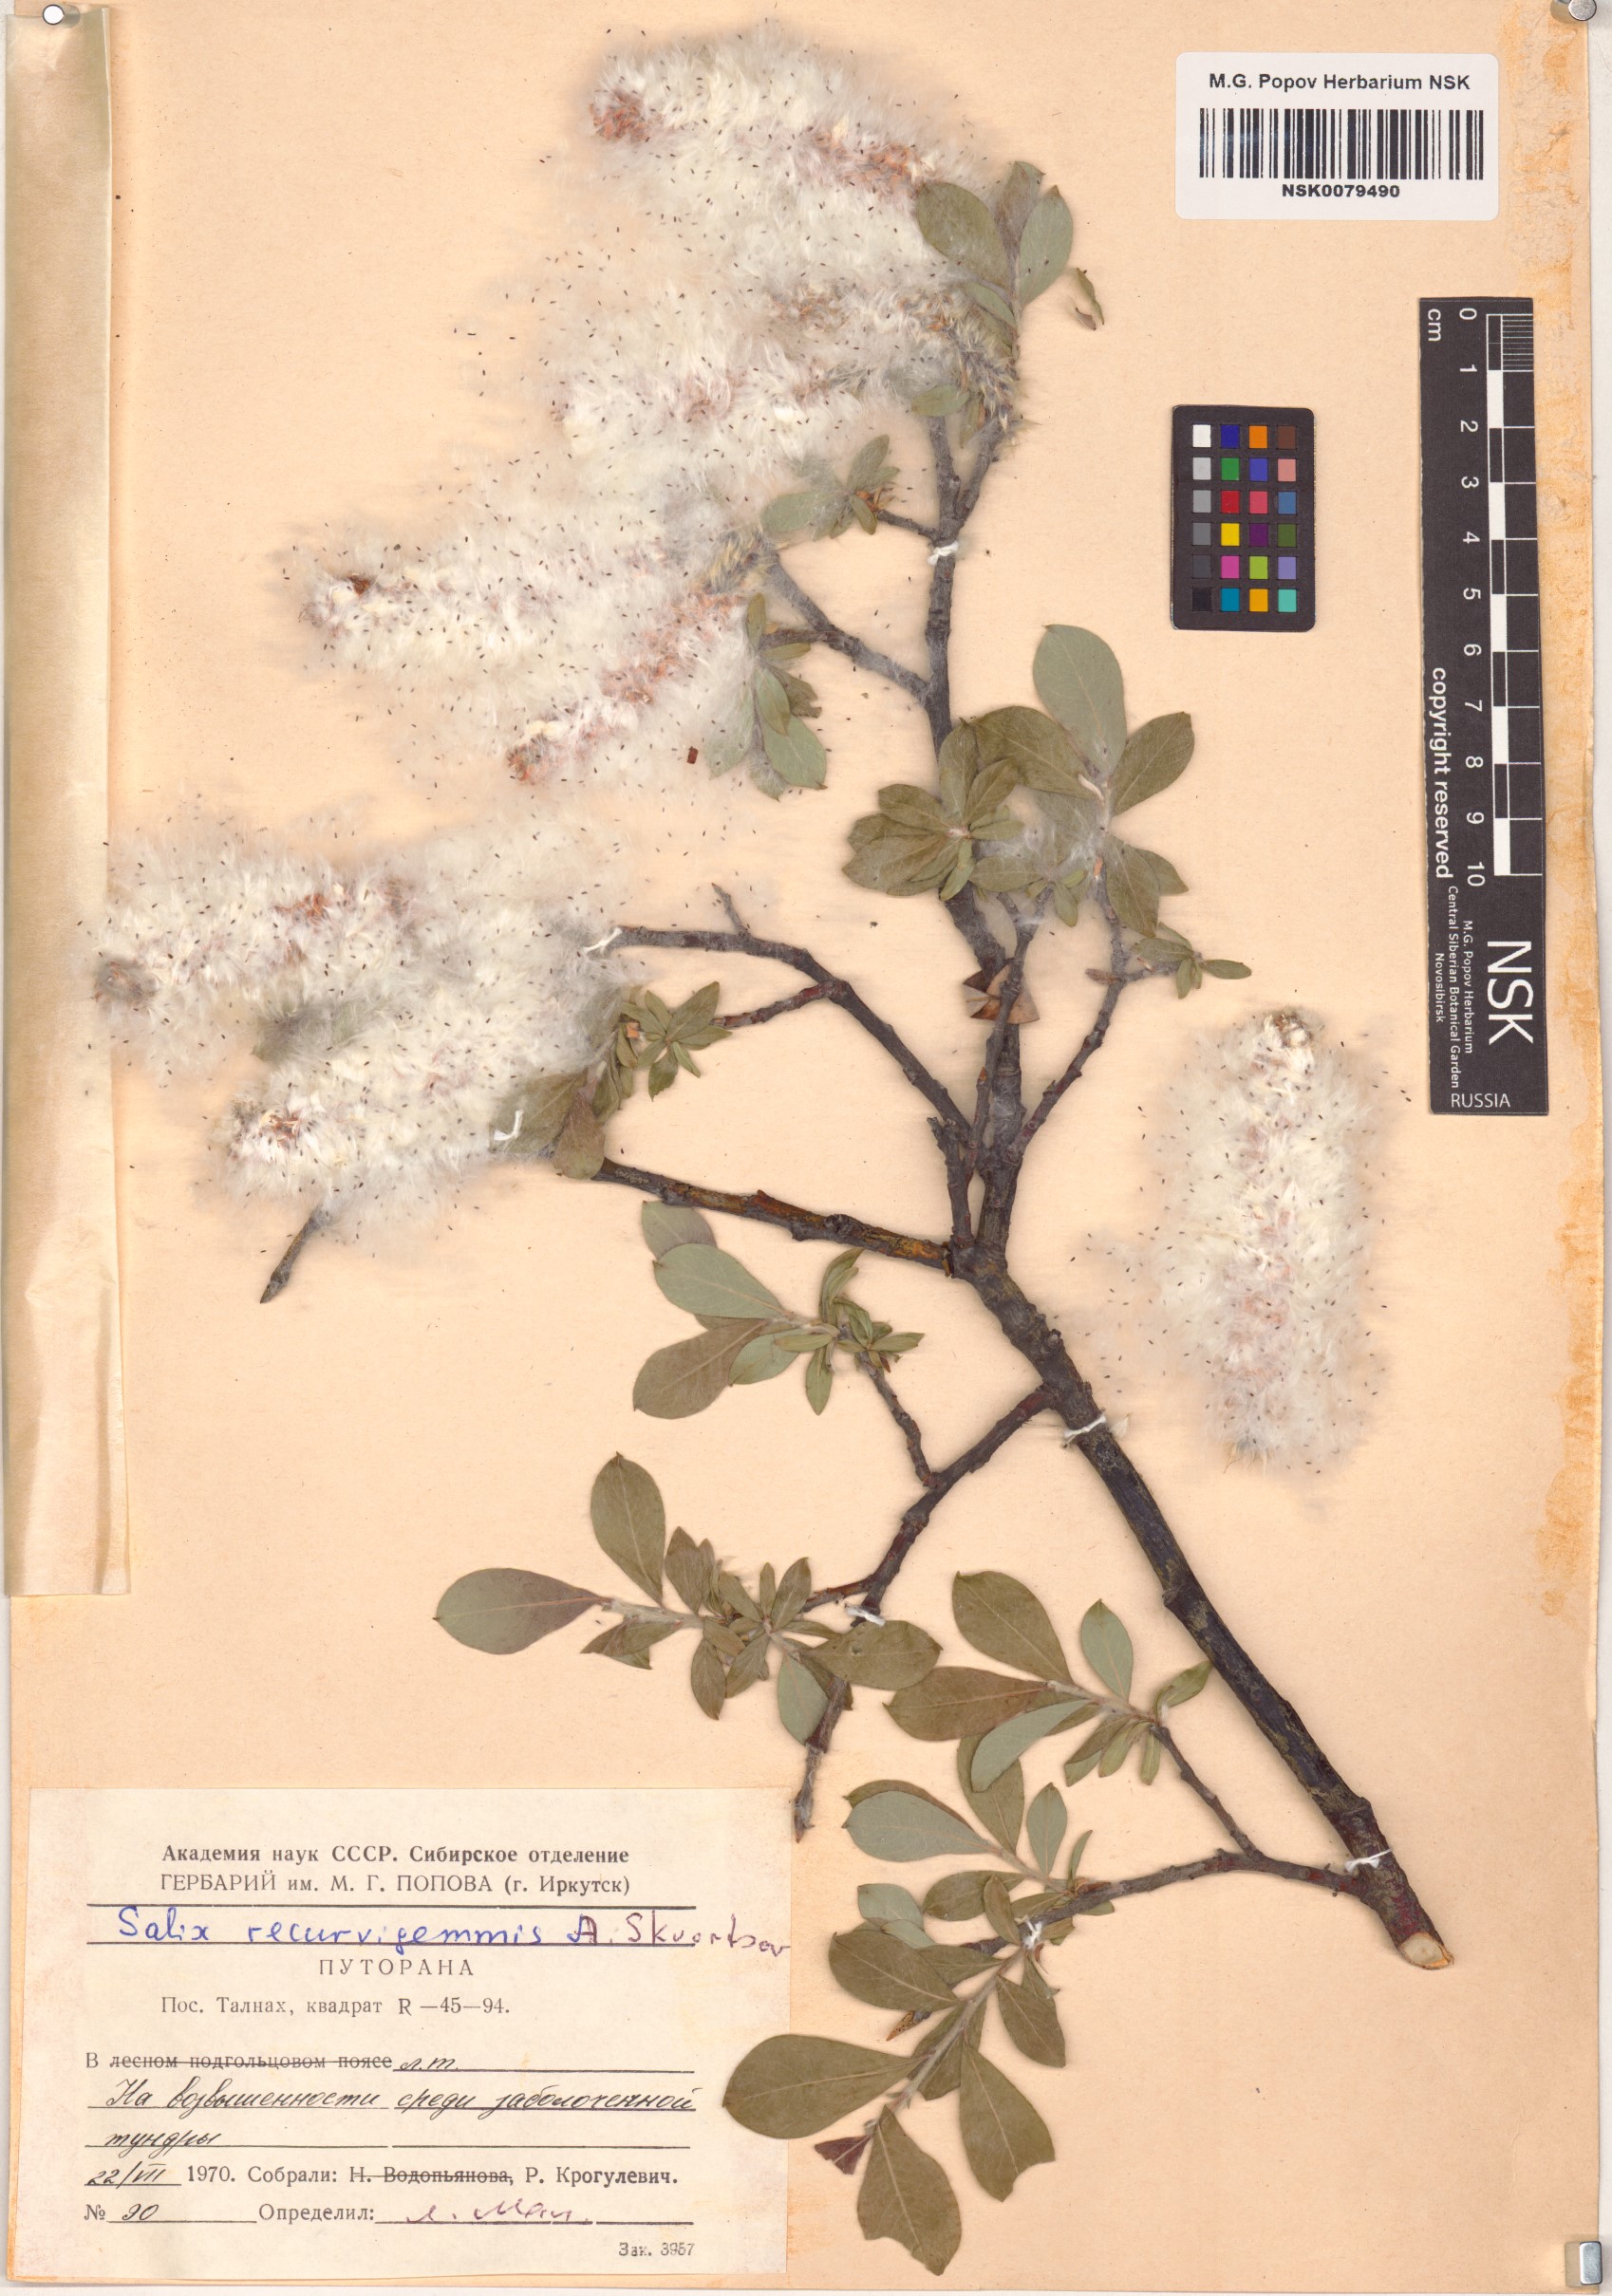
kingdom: Plantae
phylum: Tracheophyta
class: Magnoliopsida
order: Malpighiales
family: Salicaceae
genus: Salix
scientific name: Salix recurvigemmata
